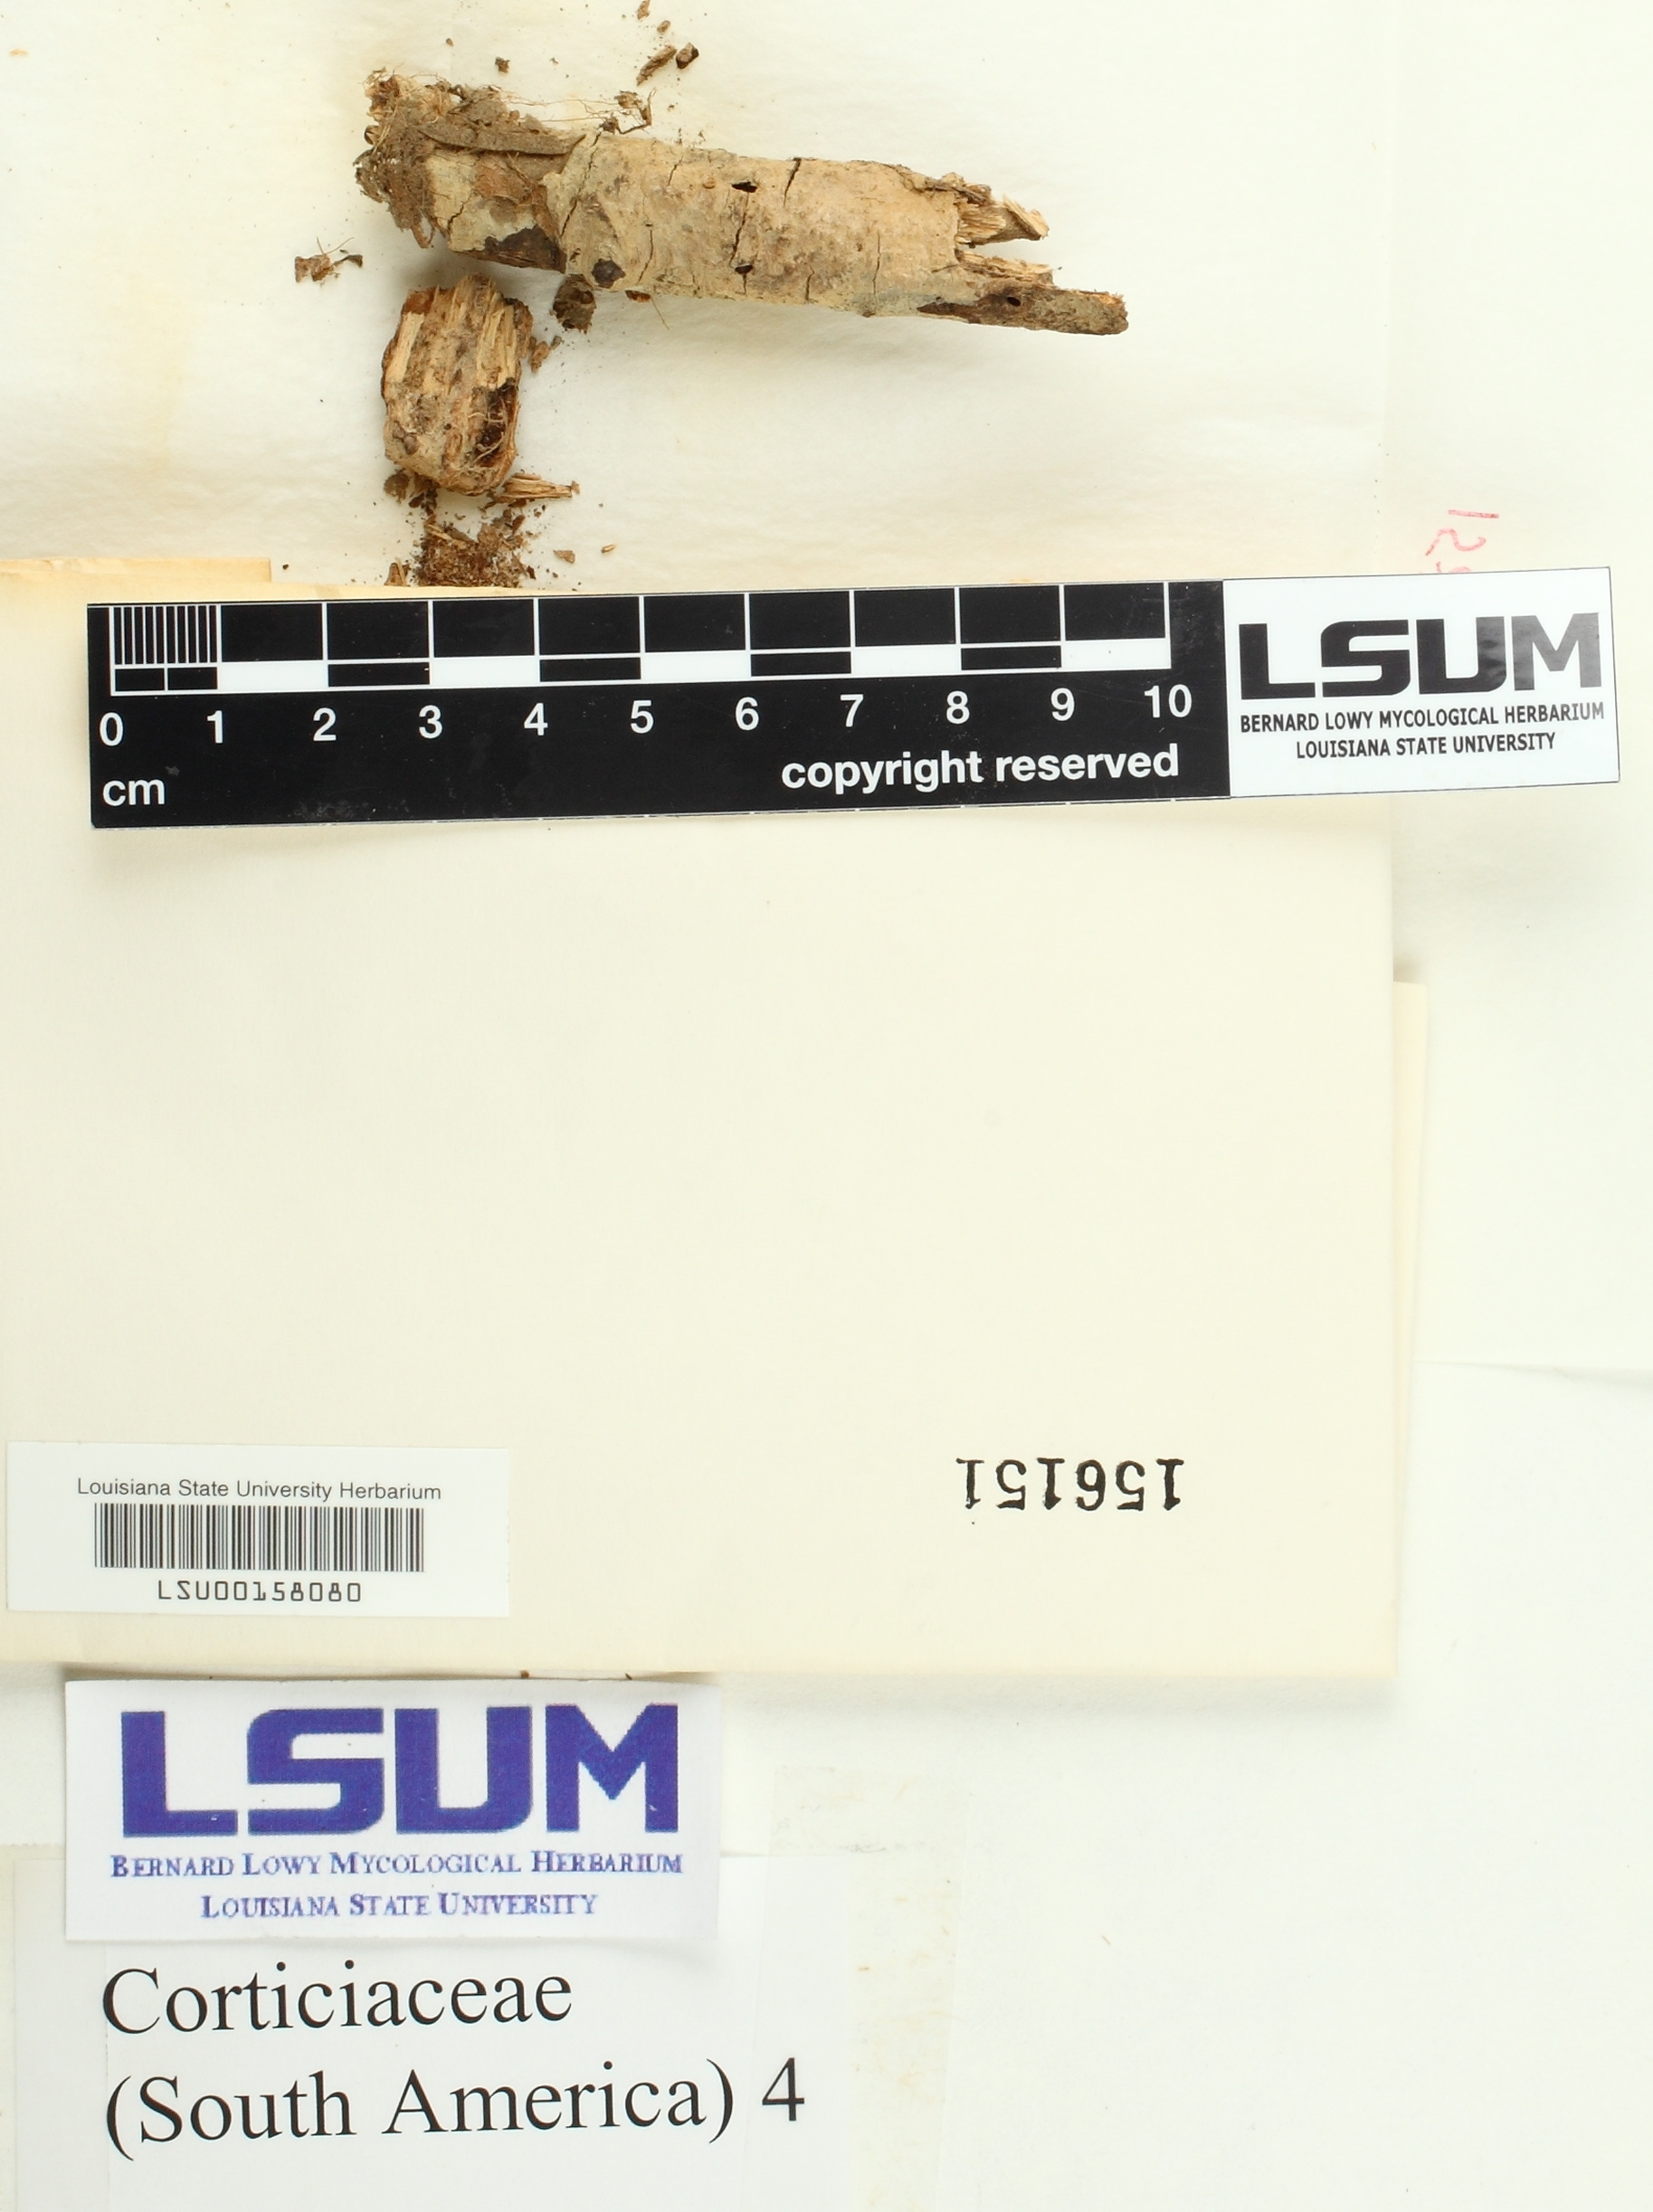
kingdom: Fungi
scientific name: Fungi
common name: Fungi
